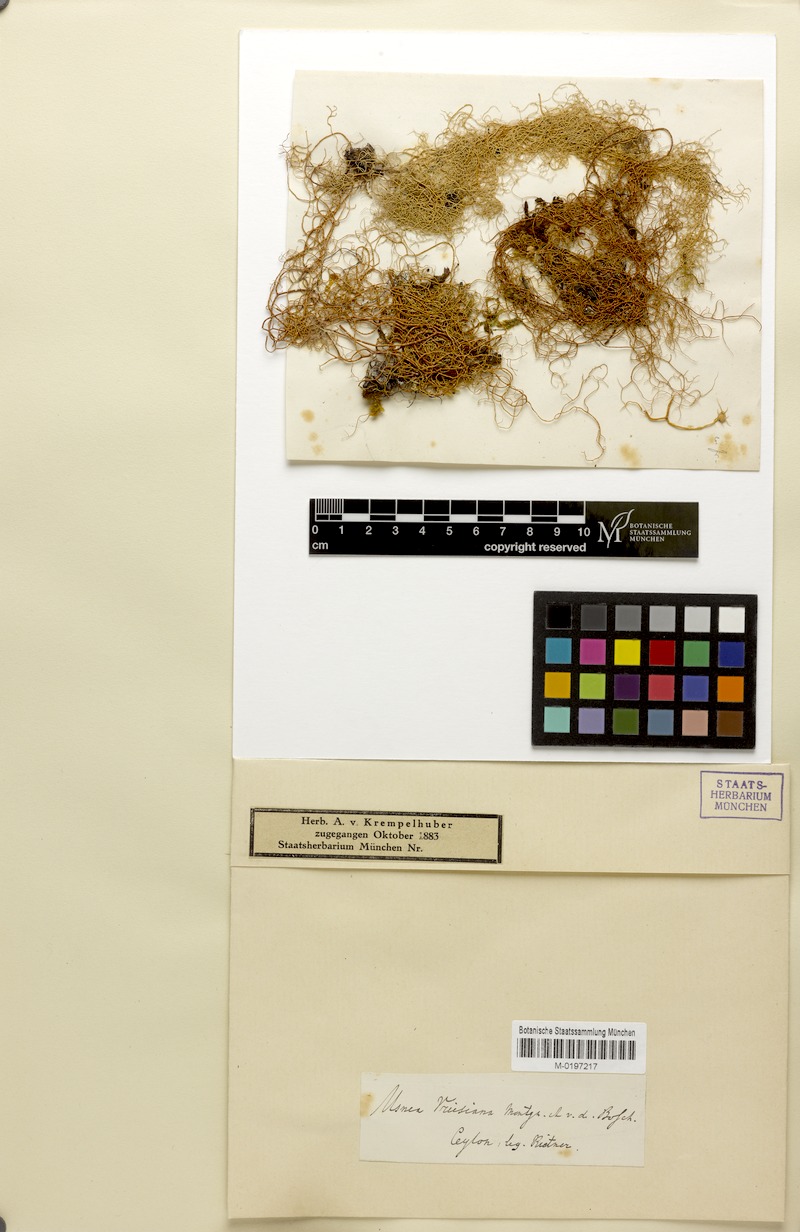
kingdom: Fungi
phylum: Ascomycota
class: Lecanoromycetes
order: Lecanorales
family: Parmeliaceae
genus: Usnea
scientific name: Usnea vrieseana
